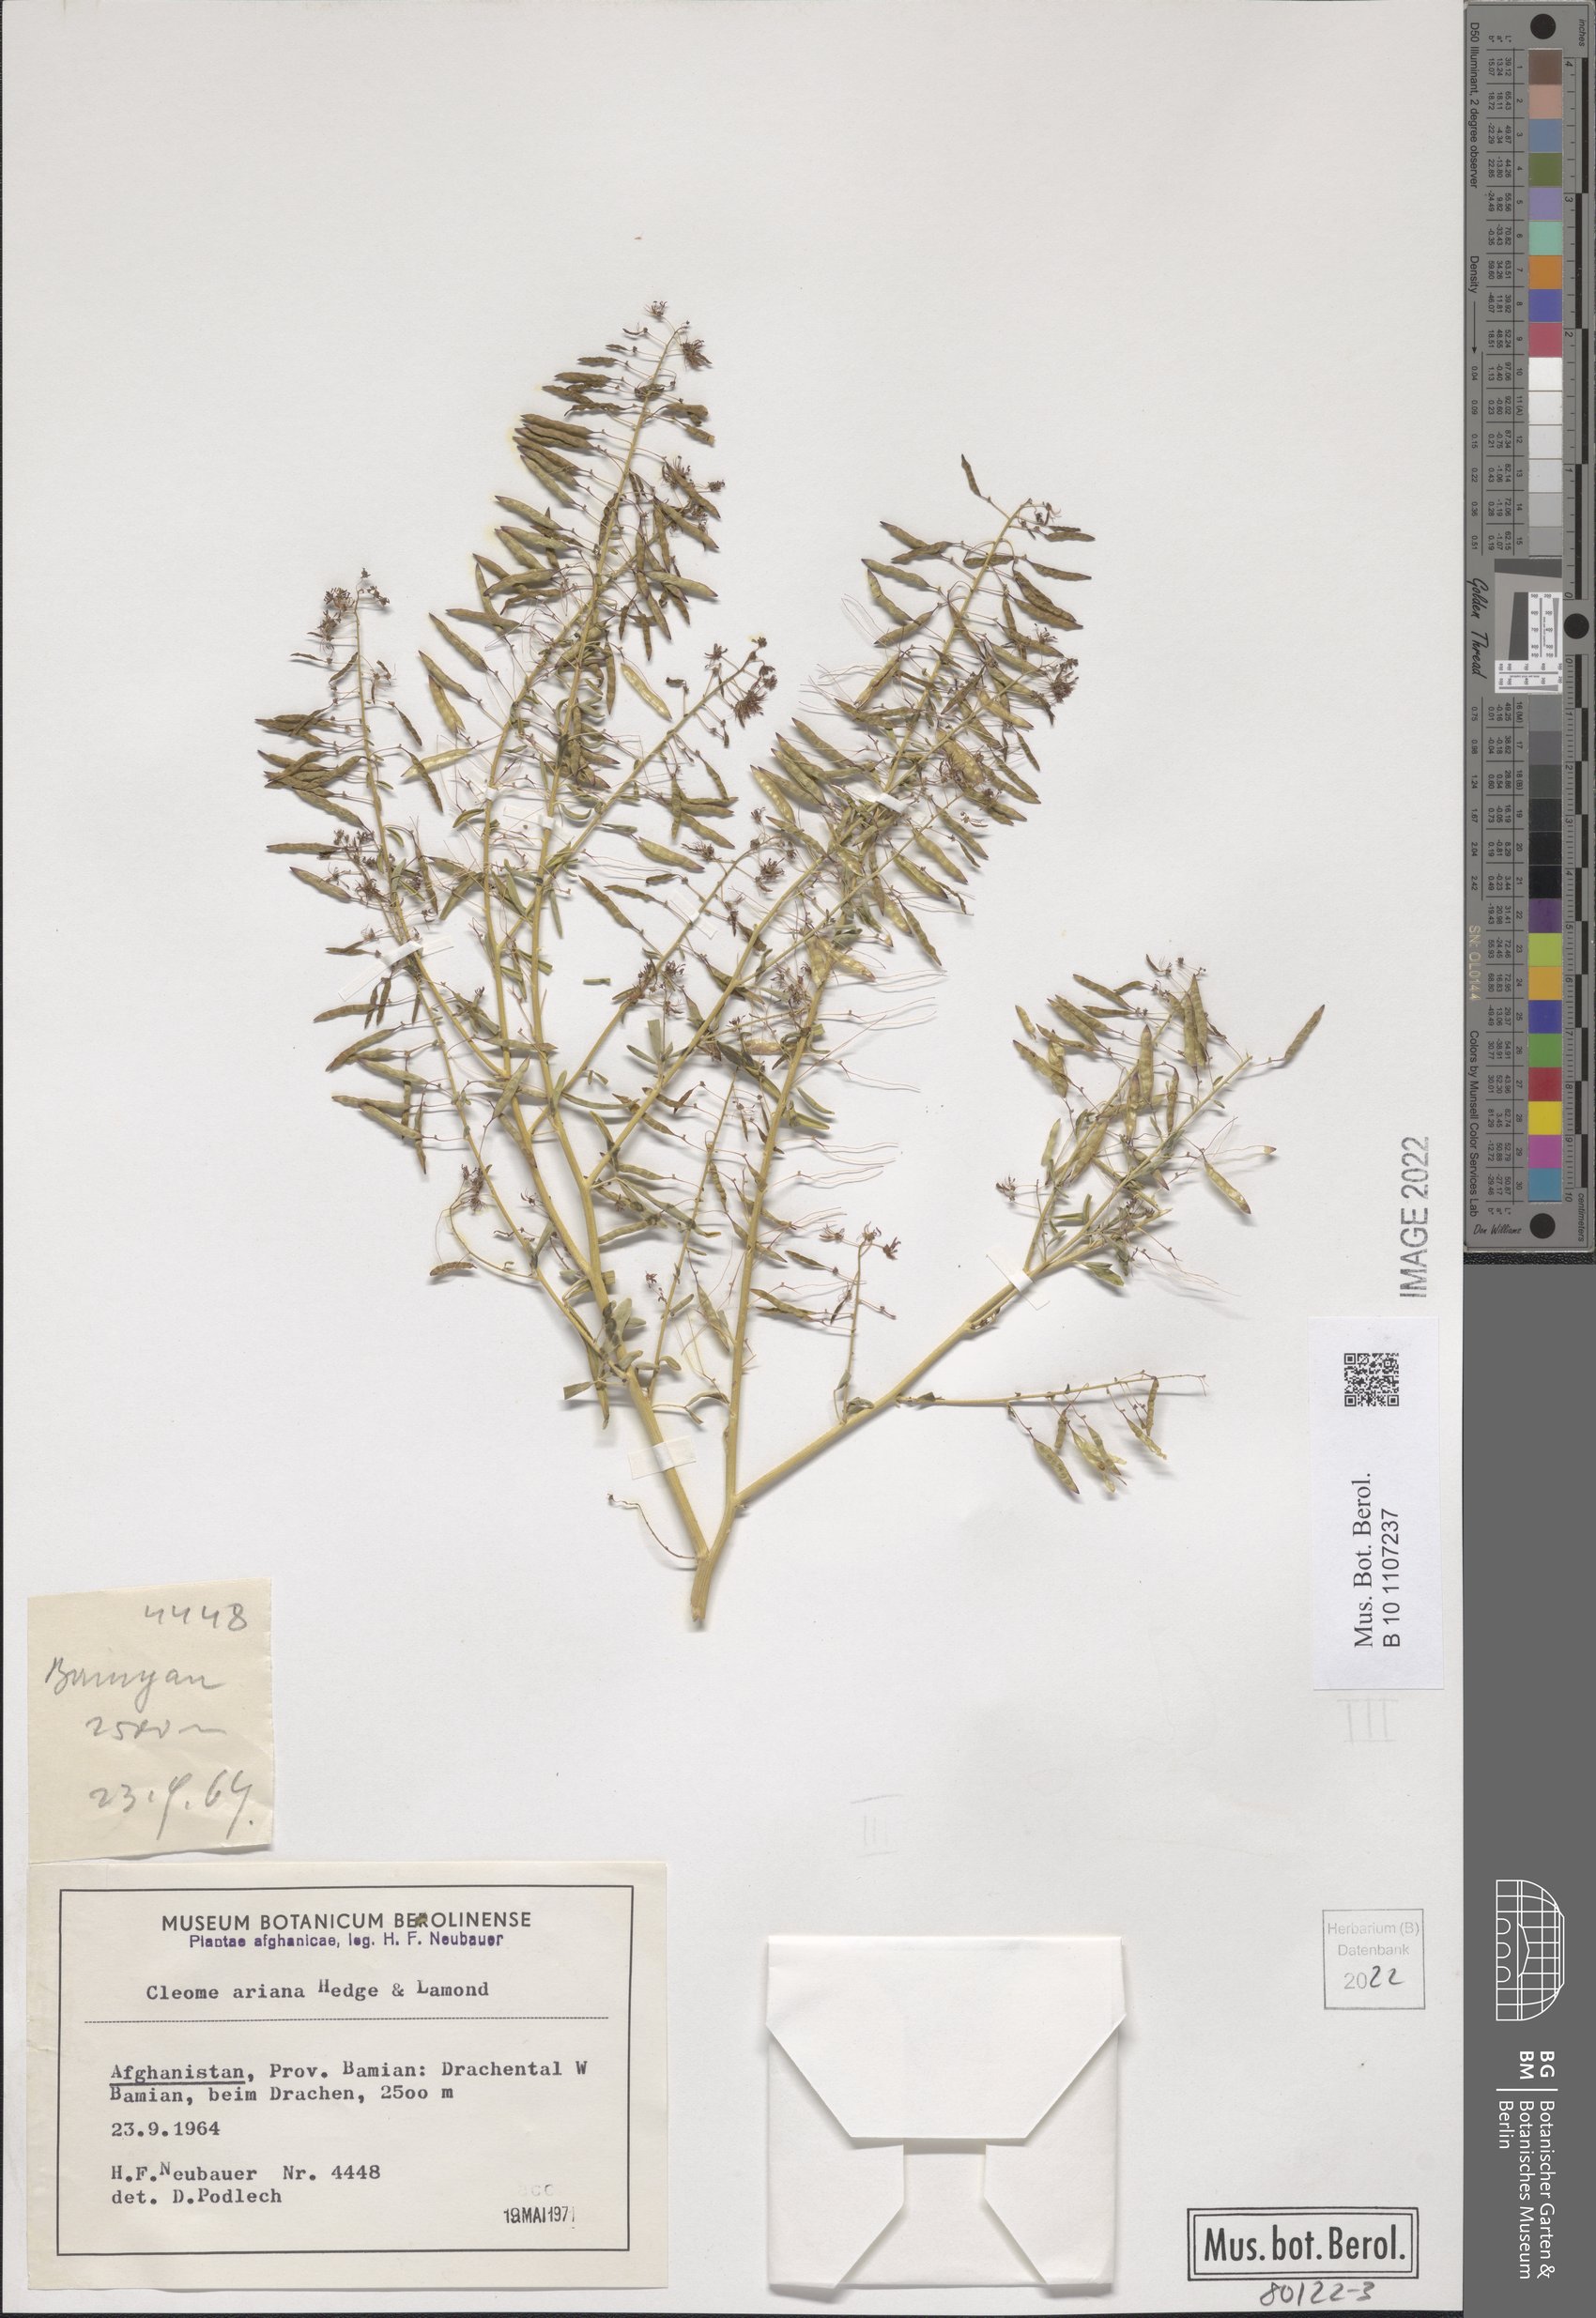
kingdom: Plantae
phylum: Tracheophyta
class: Magnoliopsida
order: Brassicales
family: Cleomaceae
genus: Cleome
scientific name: Cleome ariana
